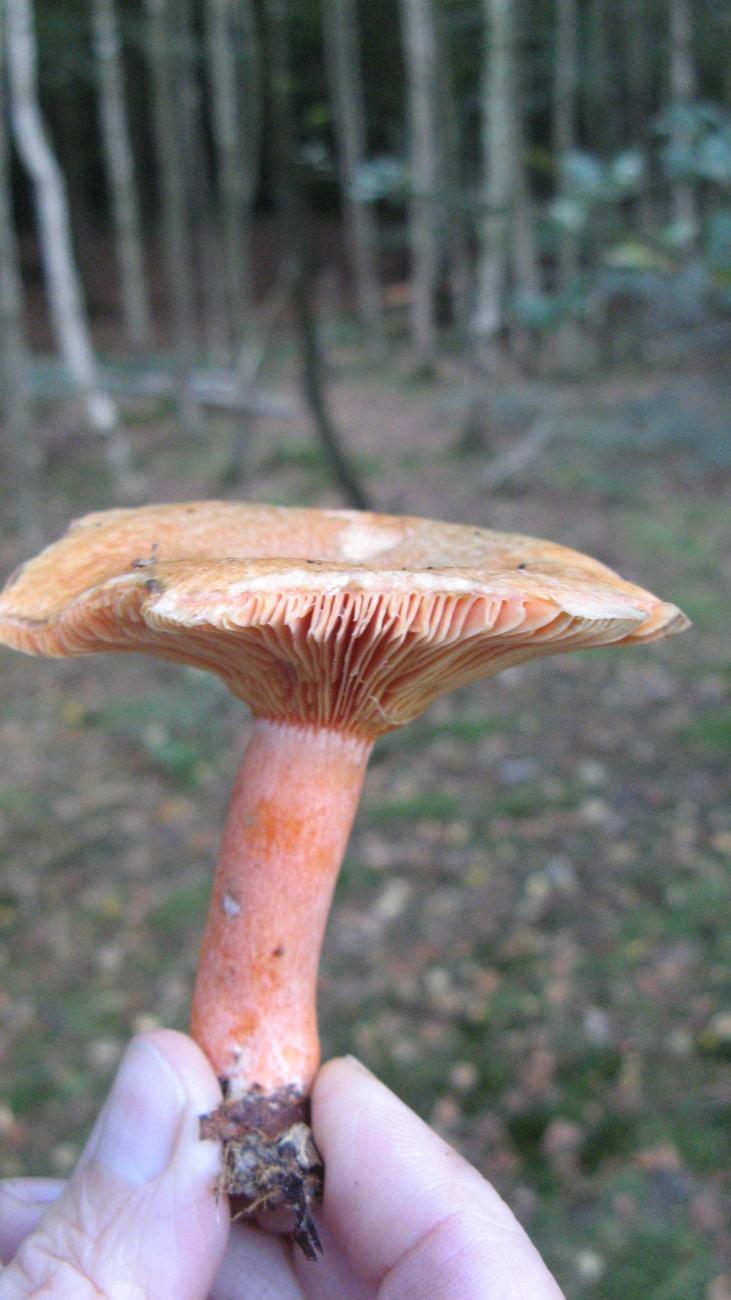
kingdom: Fungi
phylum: Basidiomycota
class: Agaricomycetes
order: Russulales
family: Russulaceae
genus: Lactarius
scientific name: Lactarius deterrimus
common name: gran-mælkehat
